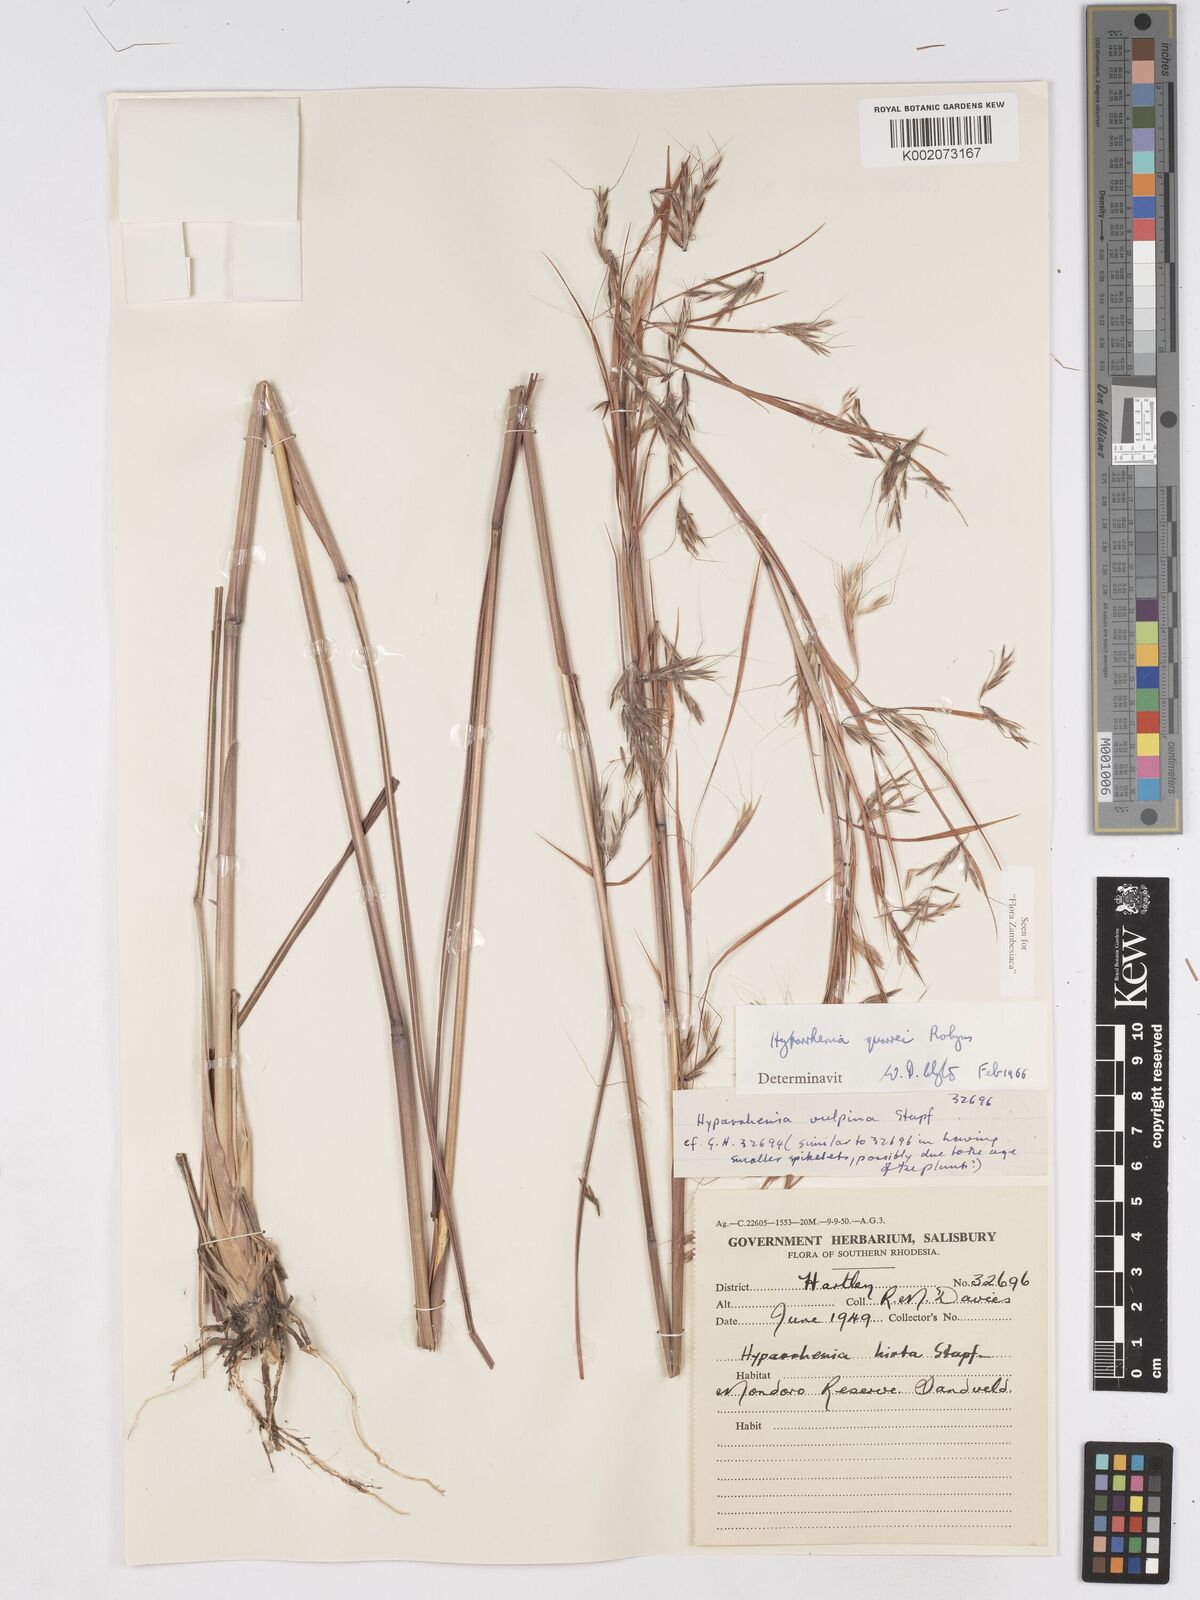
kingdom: Plantae
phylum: Tracheophyta
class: Liliopsida
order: Poales
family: Poaceae
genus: Hyparrhenia
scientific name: Hyparrhenia quarrei
